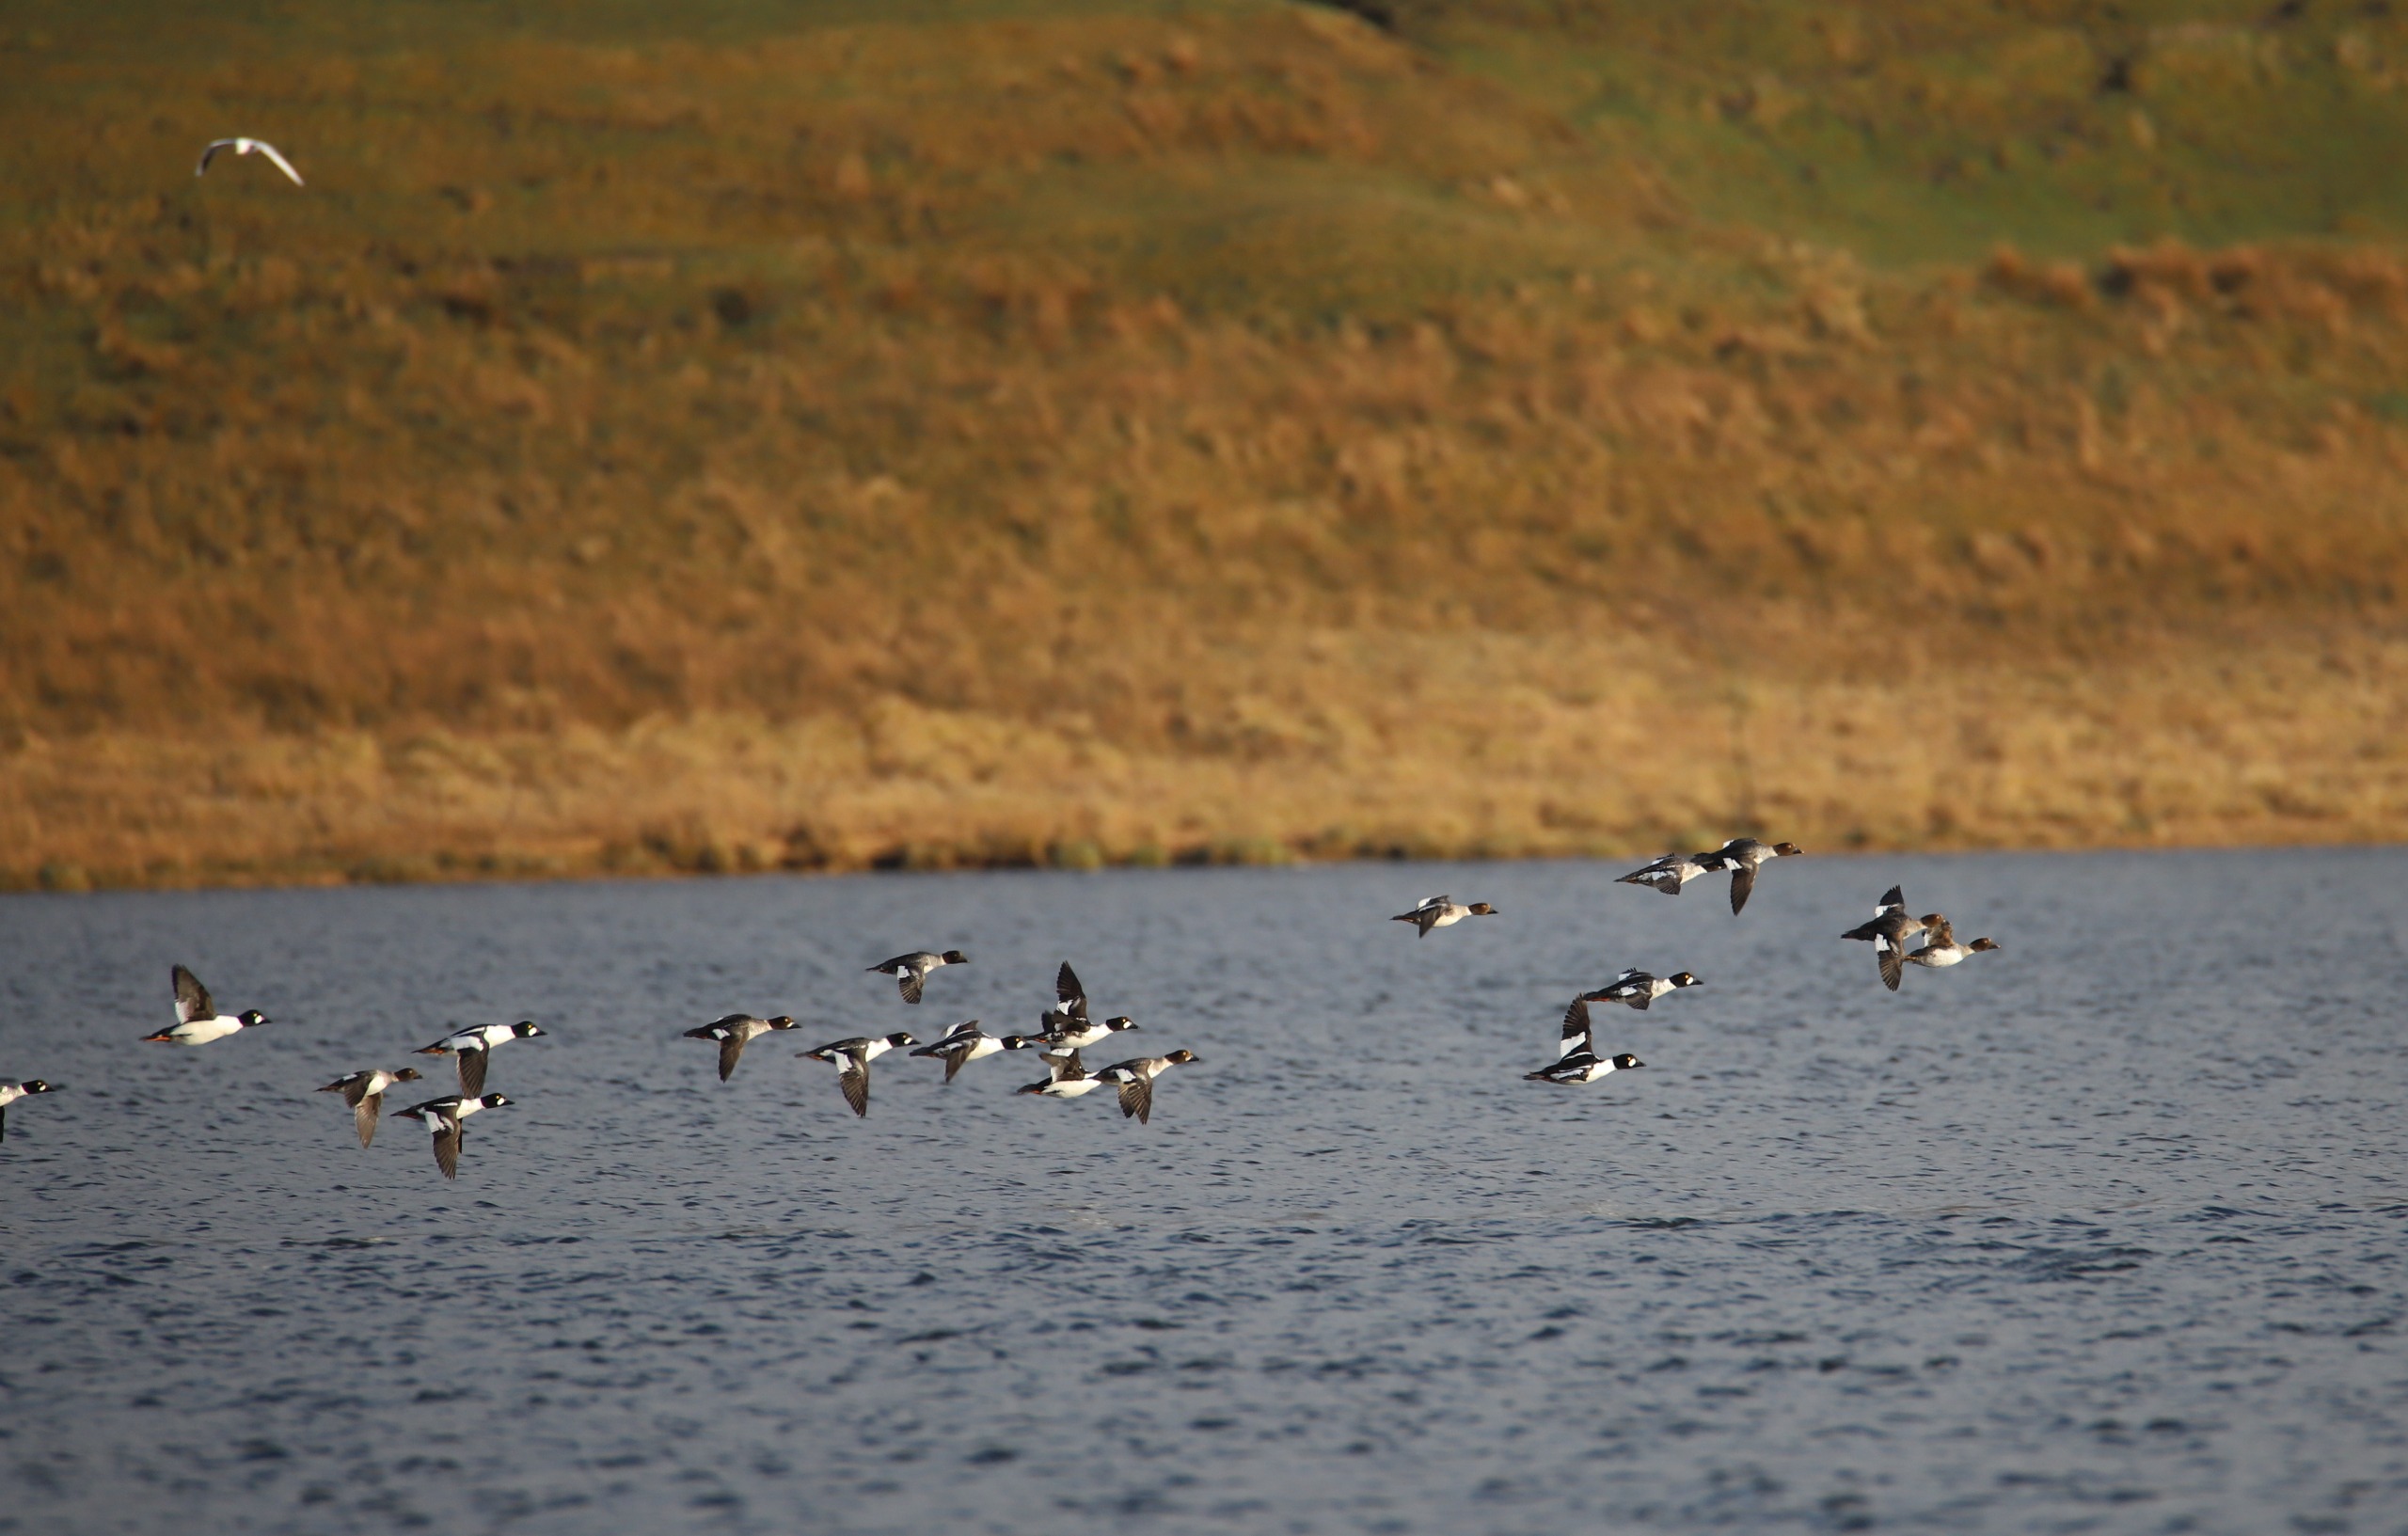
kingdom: Animalia
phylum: Chordata
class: Aves
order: Anseriformes
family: Anatidae
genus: Bucephala
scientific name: Bucephala clangula
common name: Hvinand
